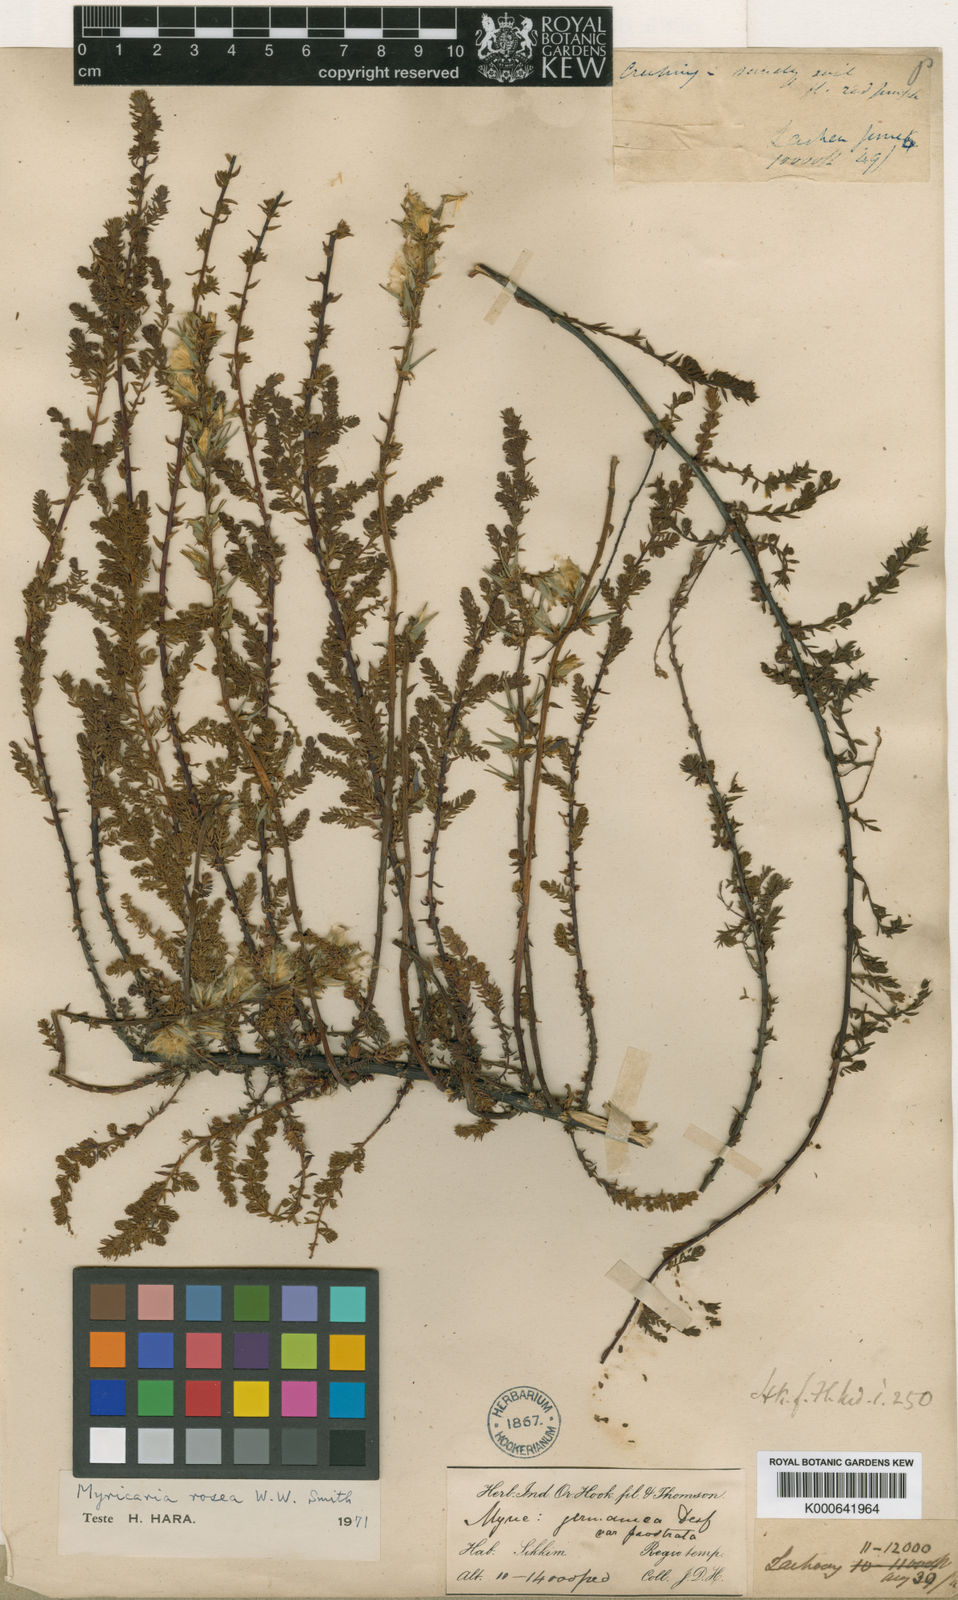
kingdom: Plantae
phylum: Tracheophyta
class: Magnoliopsida
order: Caryophyllales
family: Tamaricaceae
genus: Myricaria
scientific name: Myricaria rosea
